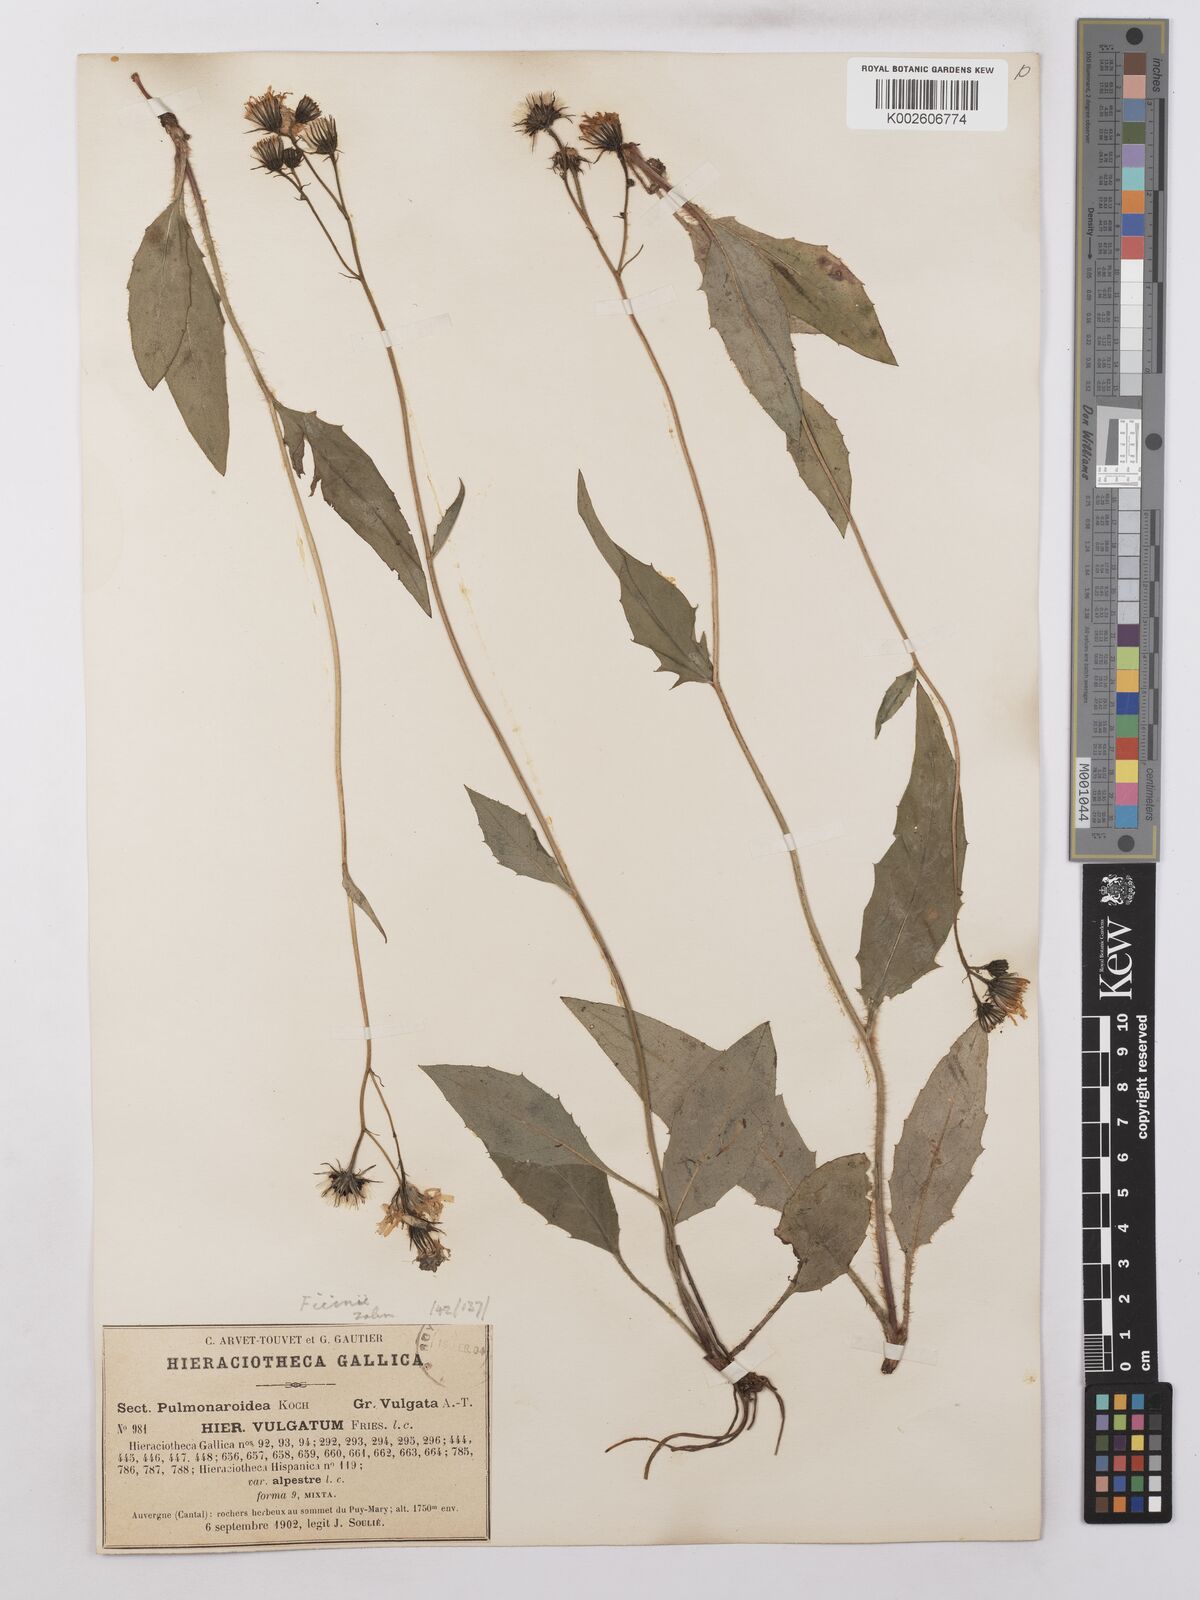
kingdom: Plantae
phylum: Tracheophyta
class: Magnoliopsida
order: Asterales
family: Asteraceae
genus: Hieracium
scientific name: Hieracium lachenalii
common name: Common hawkweed
